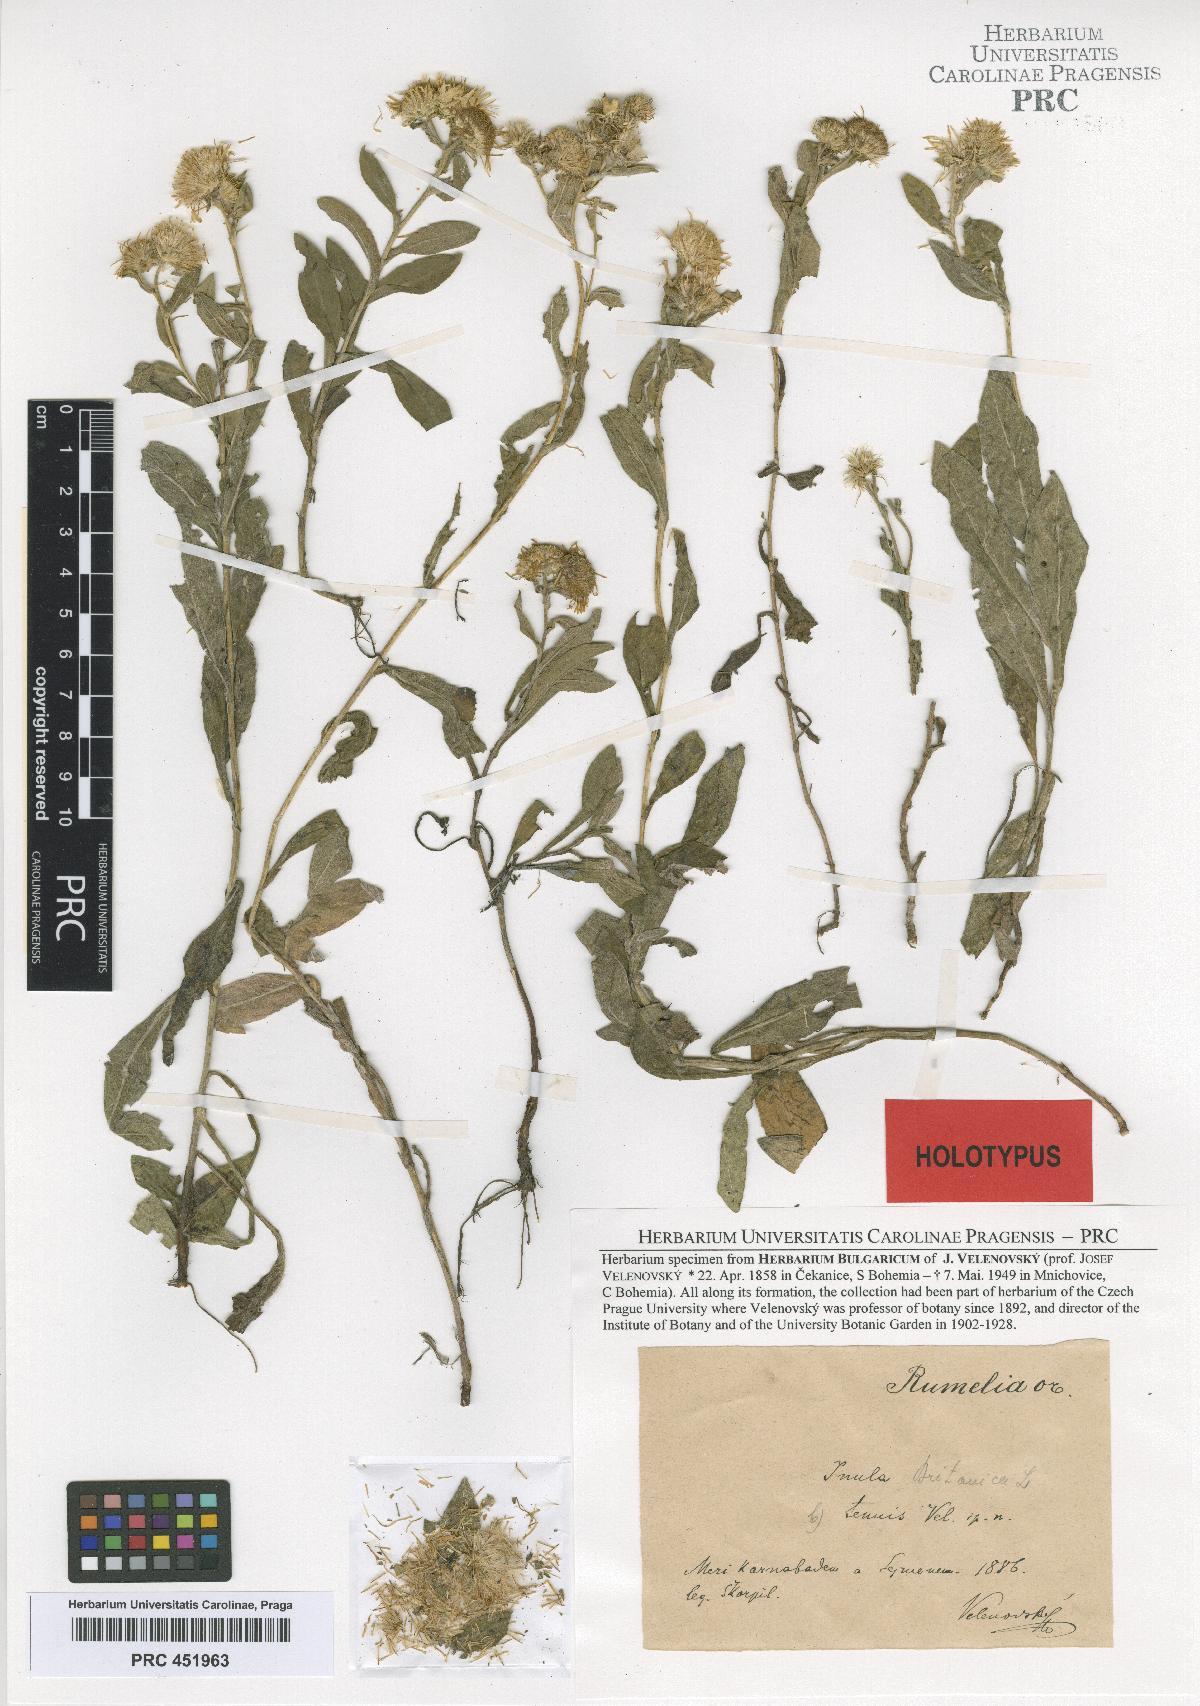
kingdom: Plantae
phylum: Tracheophyta
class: Magnoliopsida
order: Asterales
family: Asteraceae
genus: Inula
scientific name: Inula britannica
